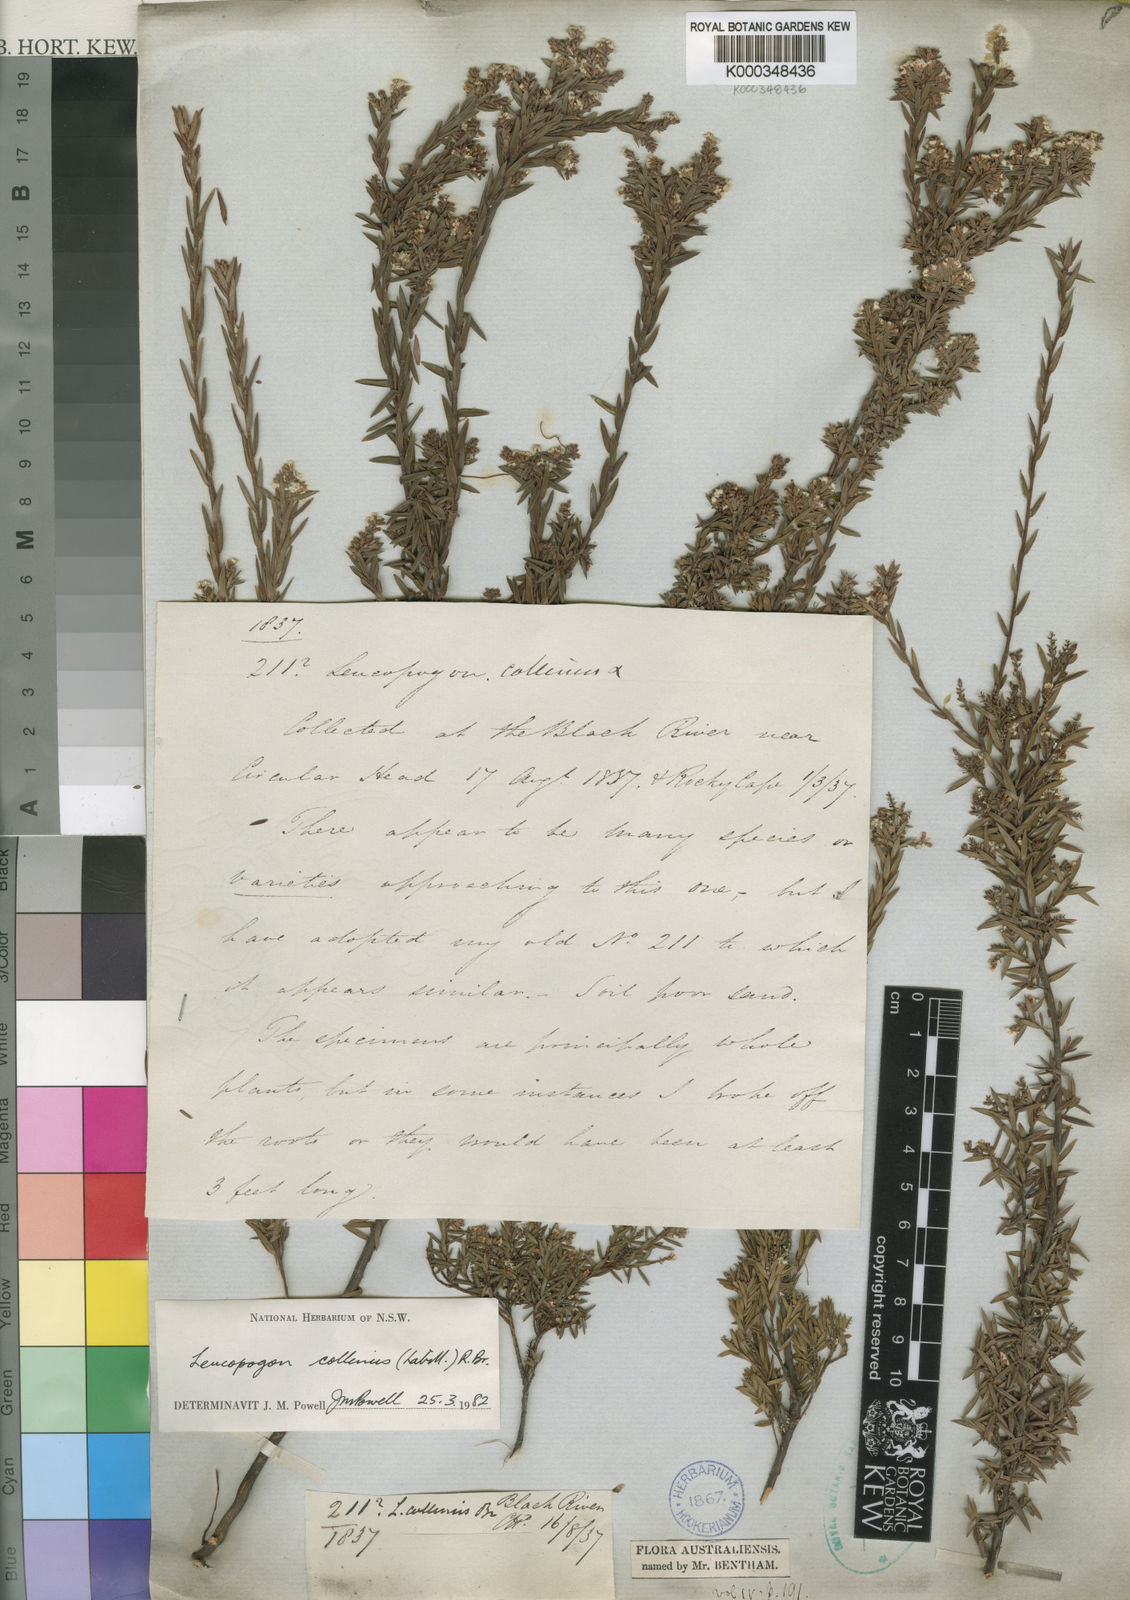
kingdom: Plantae
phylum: Tracheophyta
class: Magnoliopsida
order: Ericales
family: Ericaceae
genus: Leucopogon
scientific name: Leucopogon collinus
